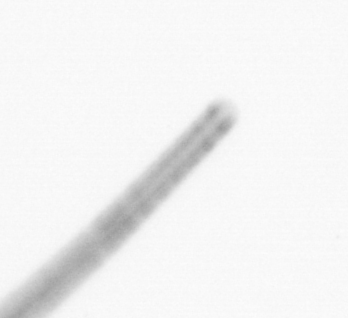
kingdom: Chromista
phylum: Ochrophyta
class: Bacillariophyceae
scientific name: Bacillariophyceae
